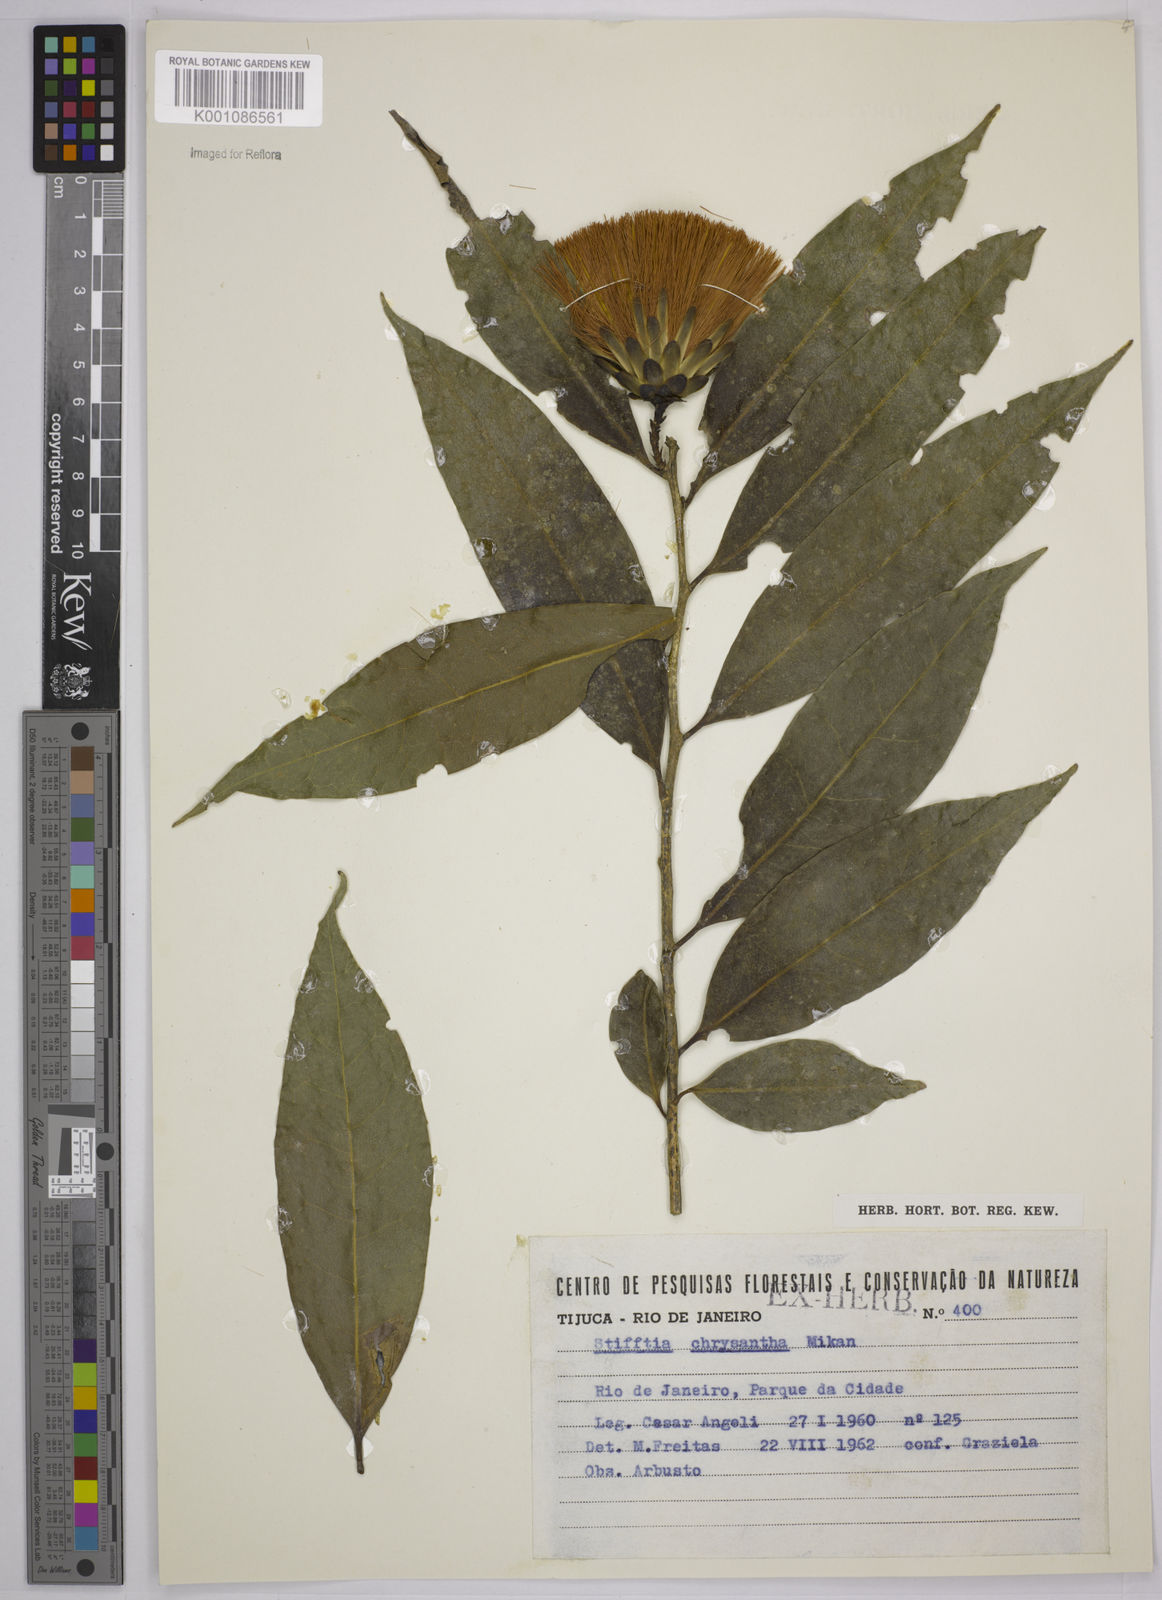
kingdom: Plantae
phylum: Tracheophyta
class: Magnoliopsida
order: Asterales
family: Asteraceae
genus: Stifftia
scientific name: Stifftia chrysantha
